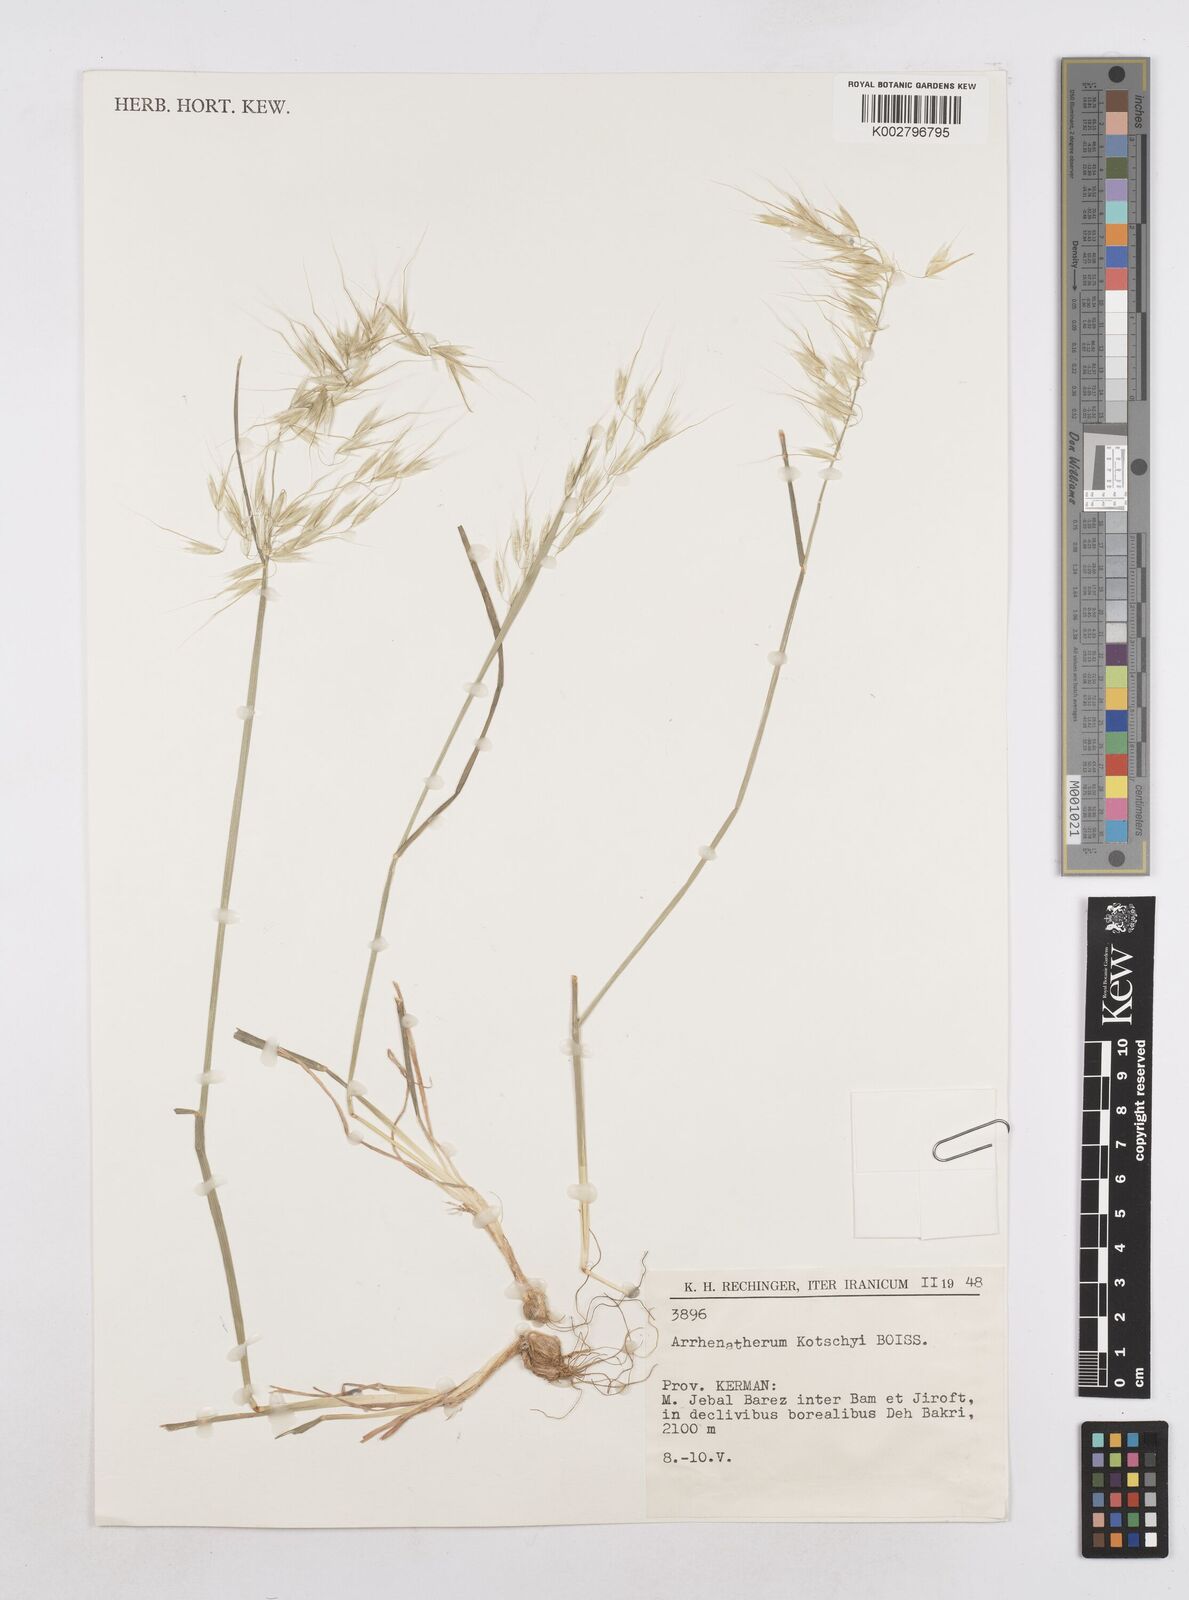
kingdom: Plantae
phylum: Tracheophyta
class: Liliopsida
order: Poales
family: Poaceae
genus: Arrhenatherum
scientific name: Arrhenatherum kotschyi
